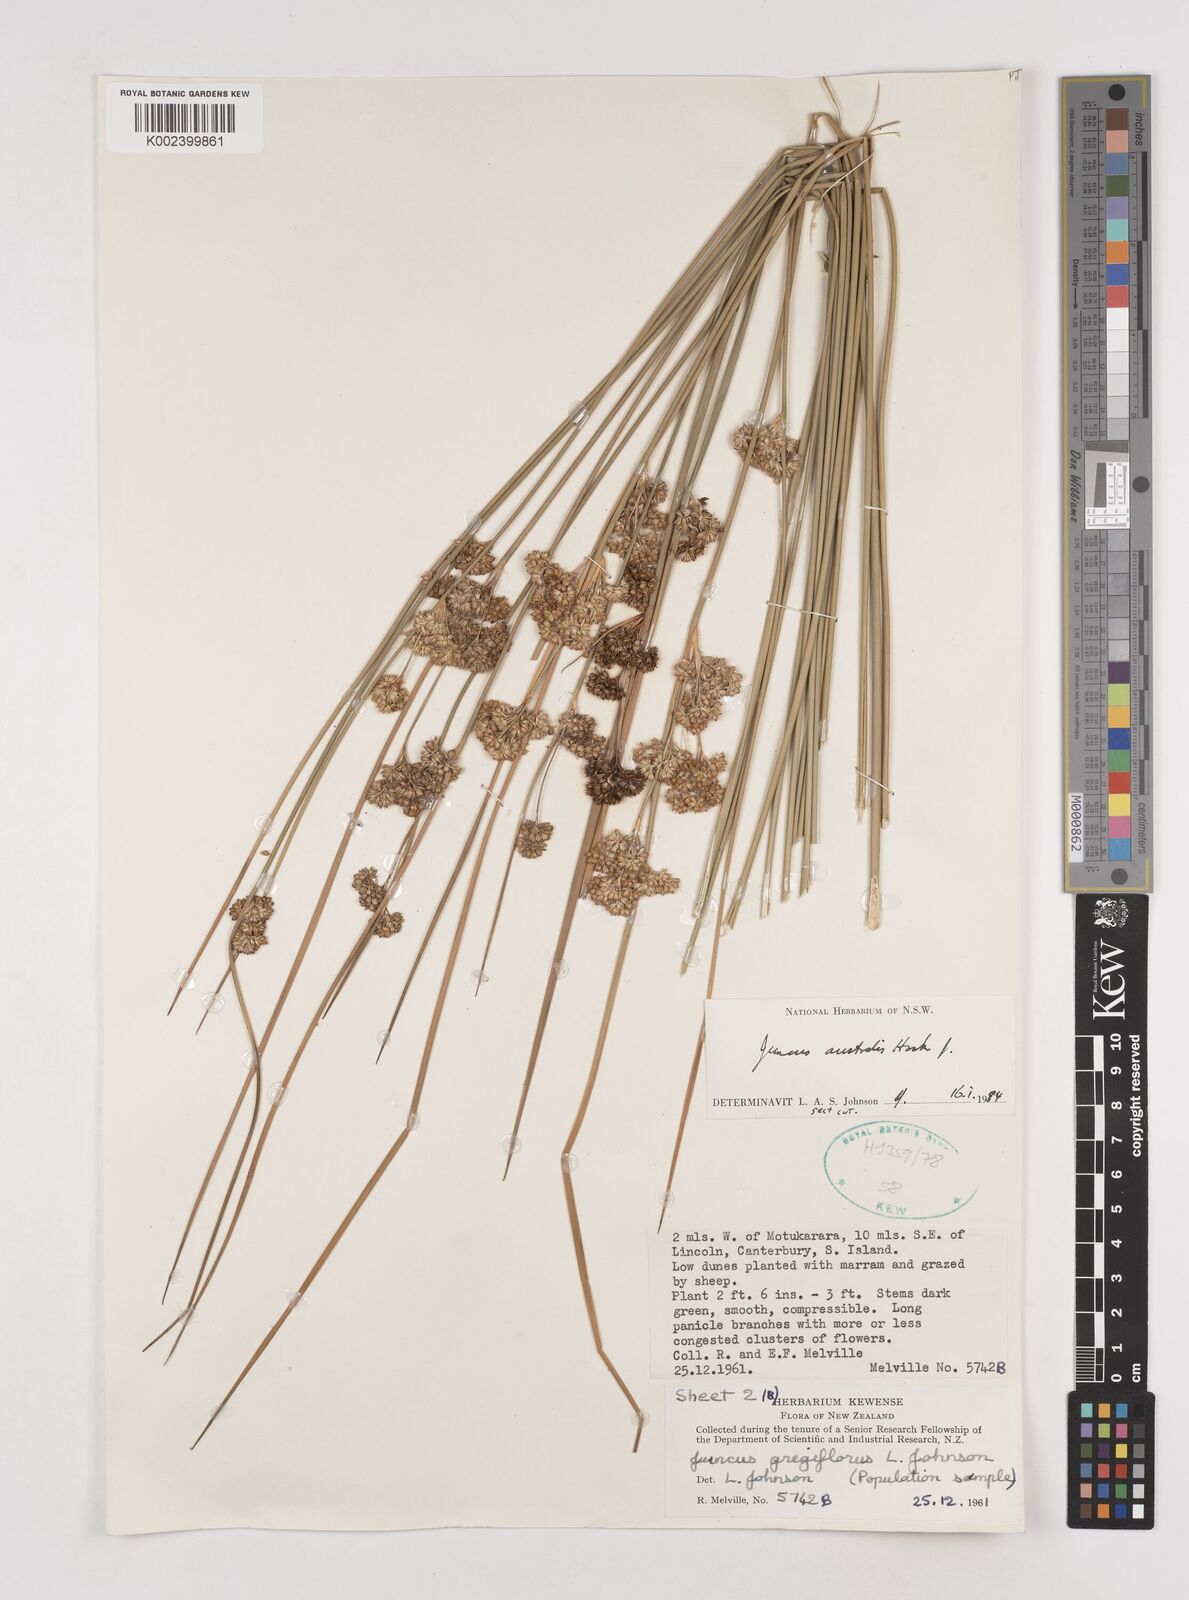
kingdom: Plantae
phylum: Tracheophyta
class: Liliopsida
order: Poales
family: Juncaceae
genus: Juncus
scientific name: Juncus australis
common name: Austral rush
